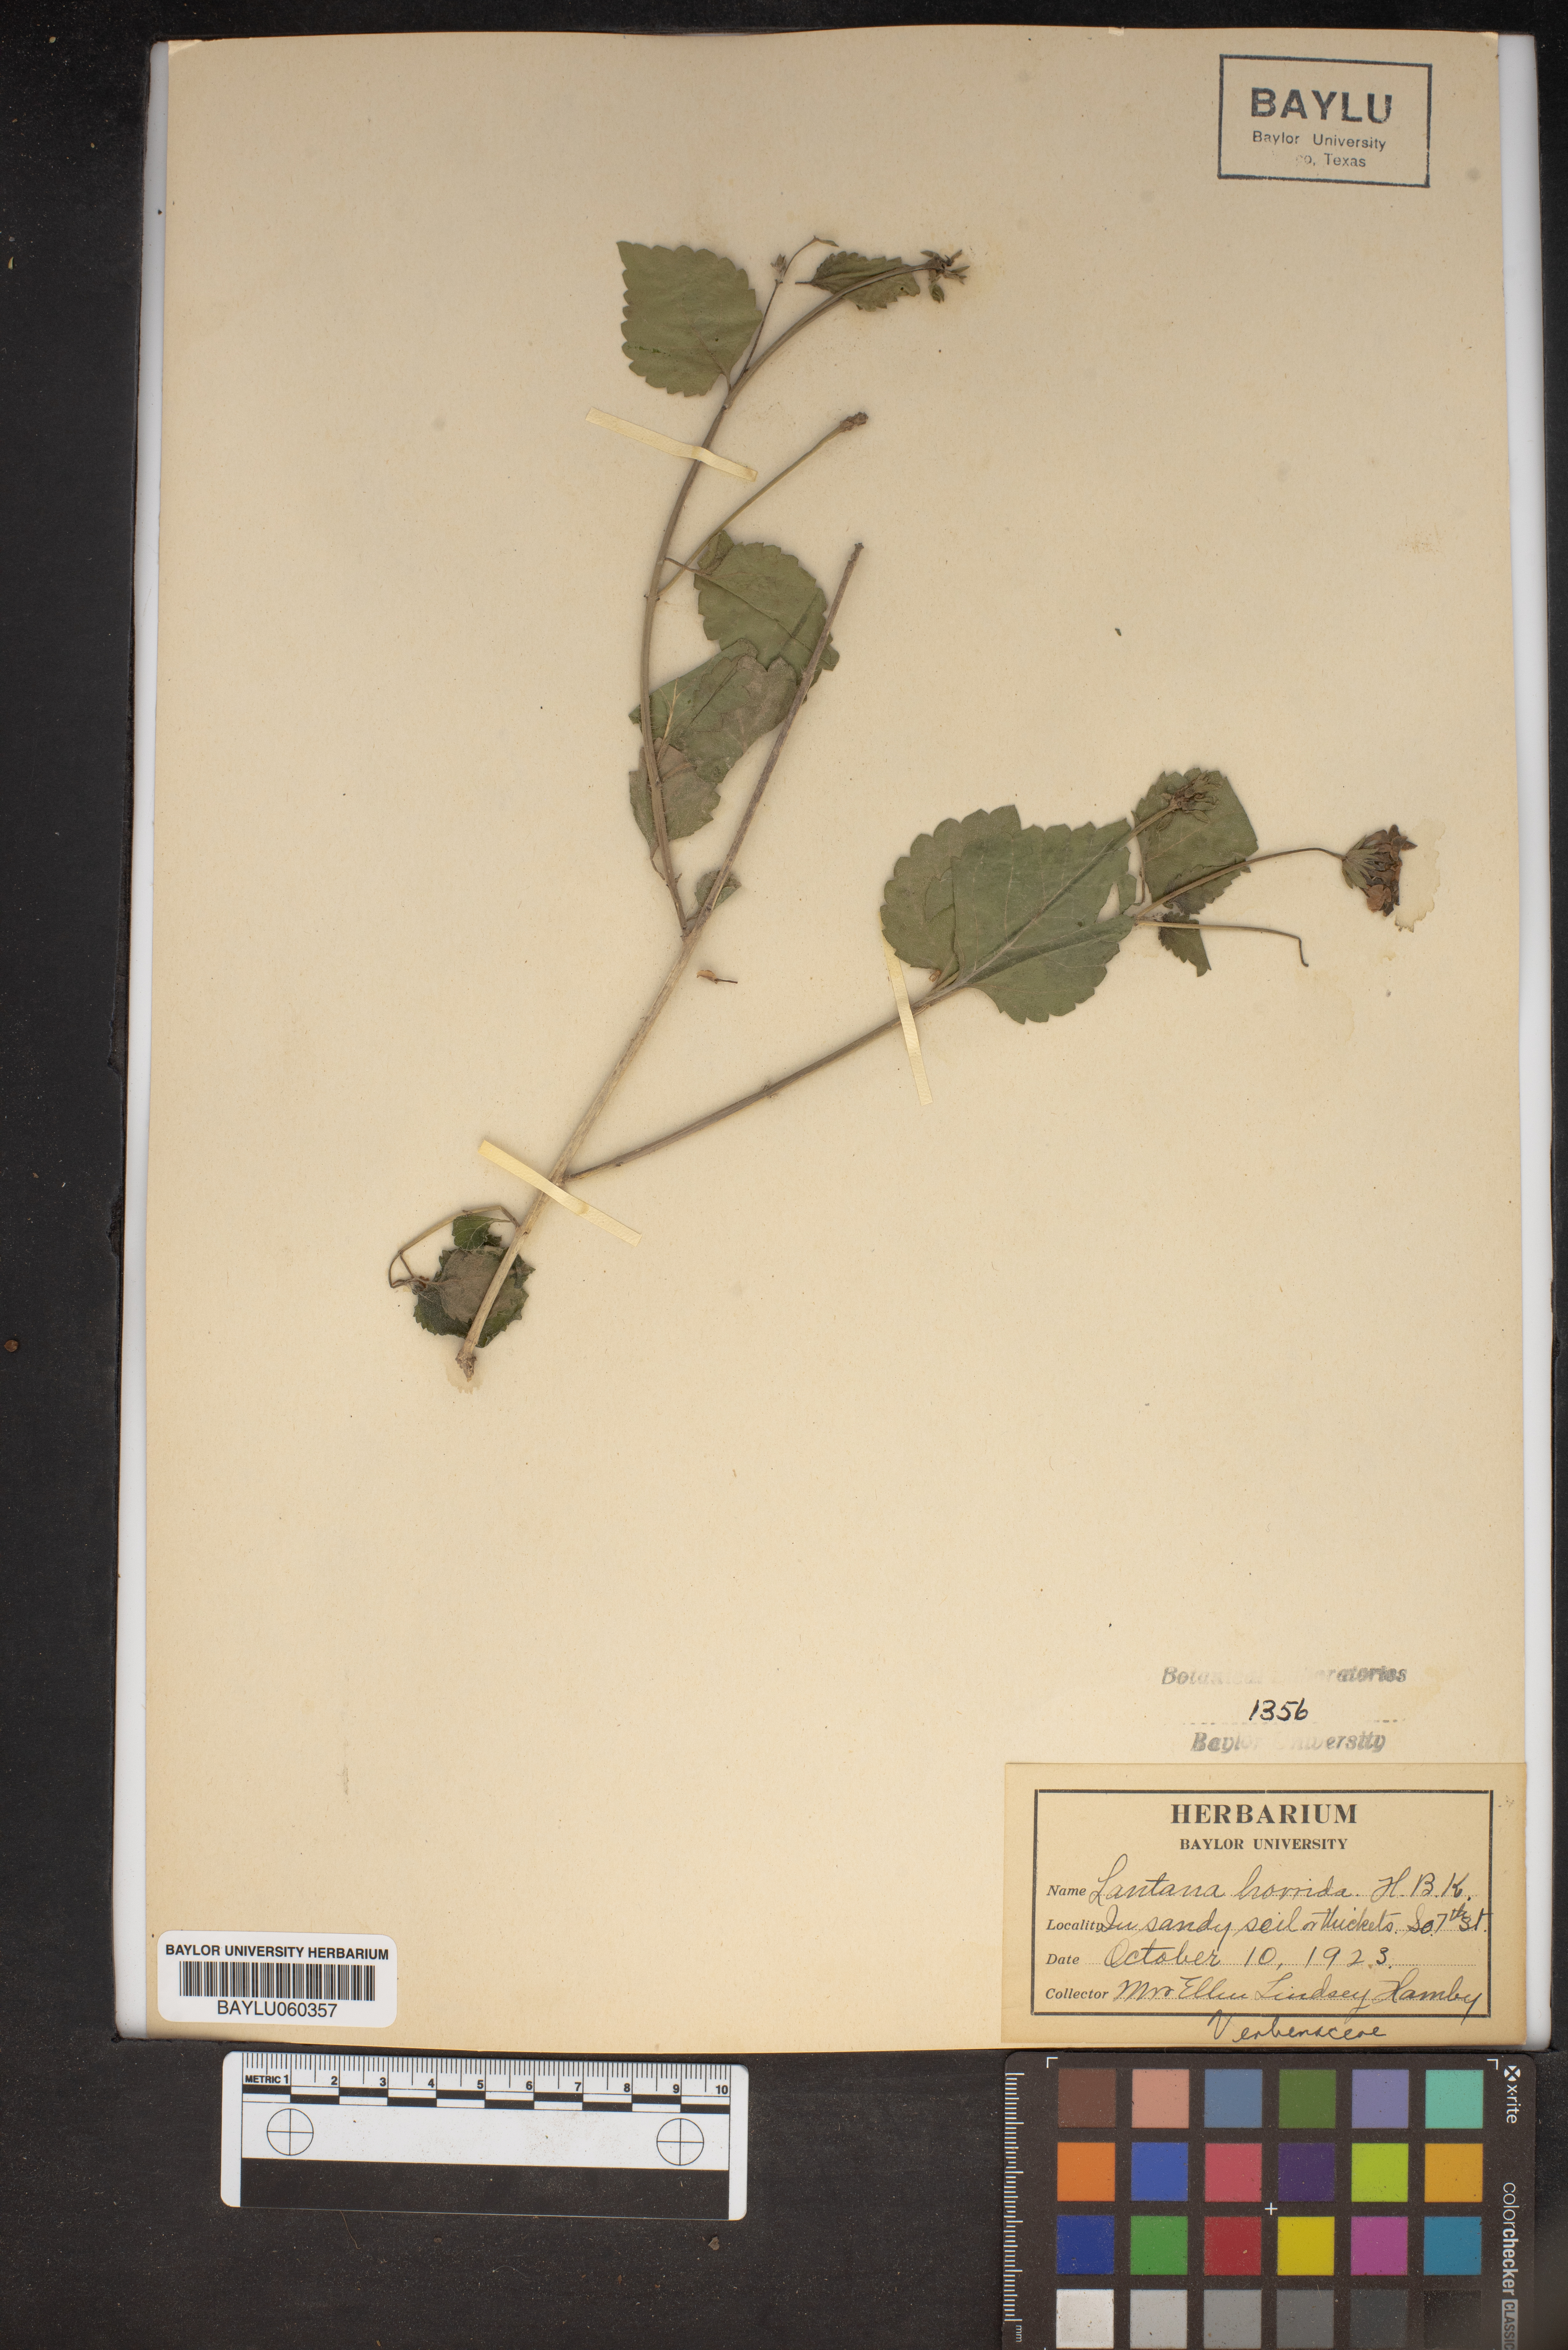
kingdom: Plantae
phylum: Tracheophyta
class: Magnoliopsida
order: Lamiales
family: Verbenaceae
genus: Lantana
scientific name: Lantana horrida
